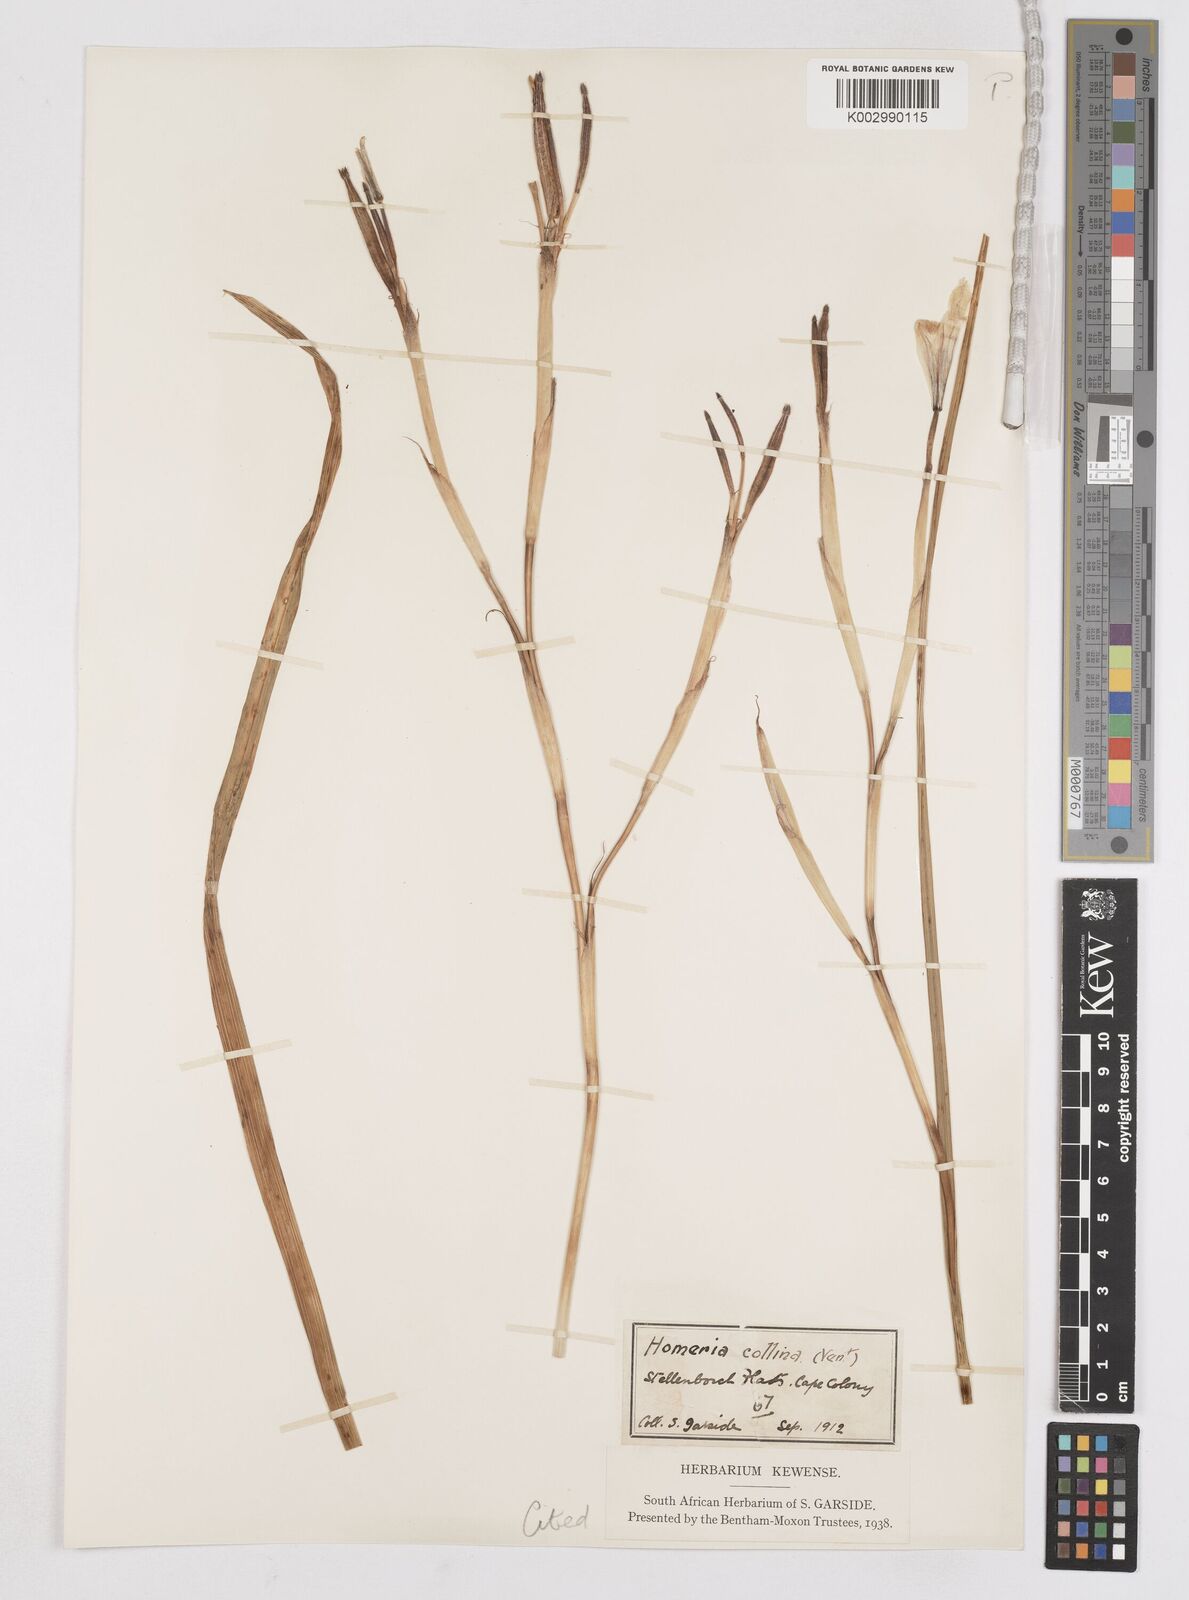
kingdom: Plantae
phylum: Tracheophyta
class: Liliopsida
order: Asparagales
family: Iridaceae
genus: Moraea
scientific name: Moraea flaccida
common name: One-leaf cape-tulip
